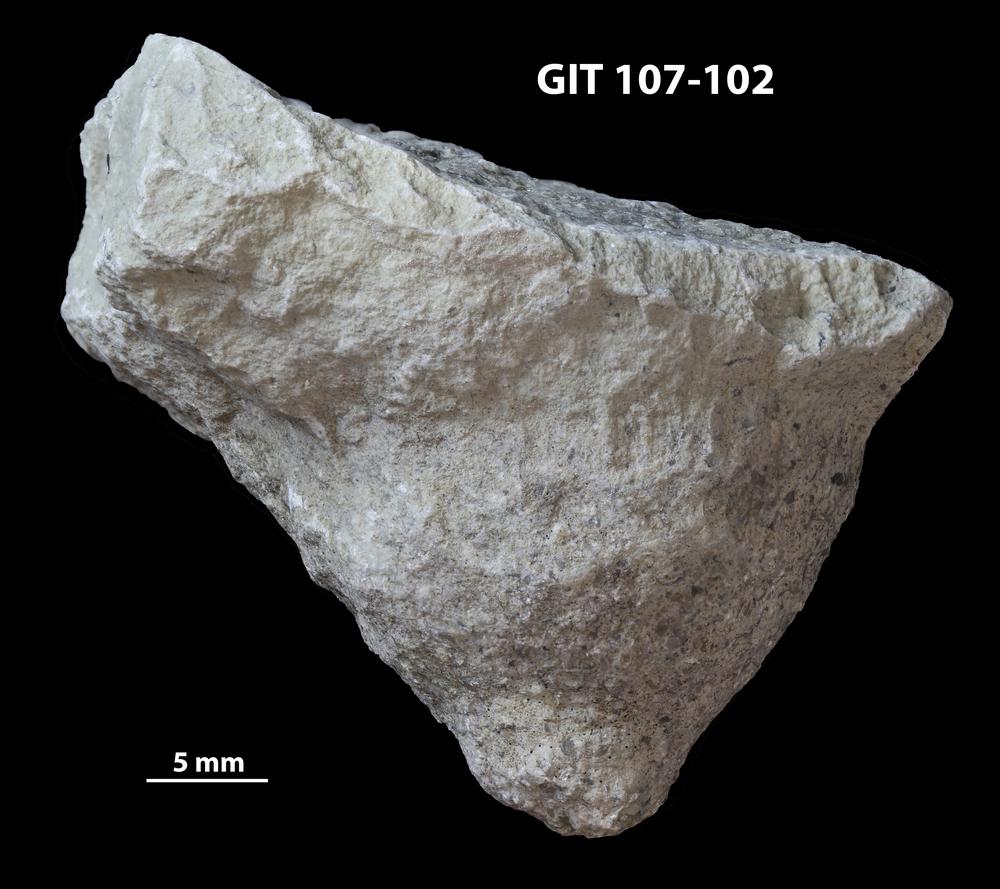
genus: Amphorichnus
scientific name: Amphorichnus
